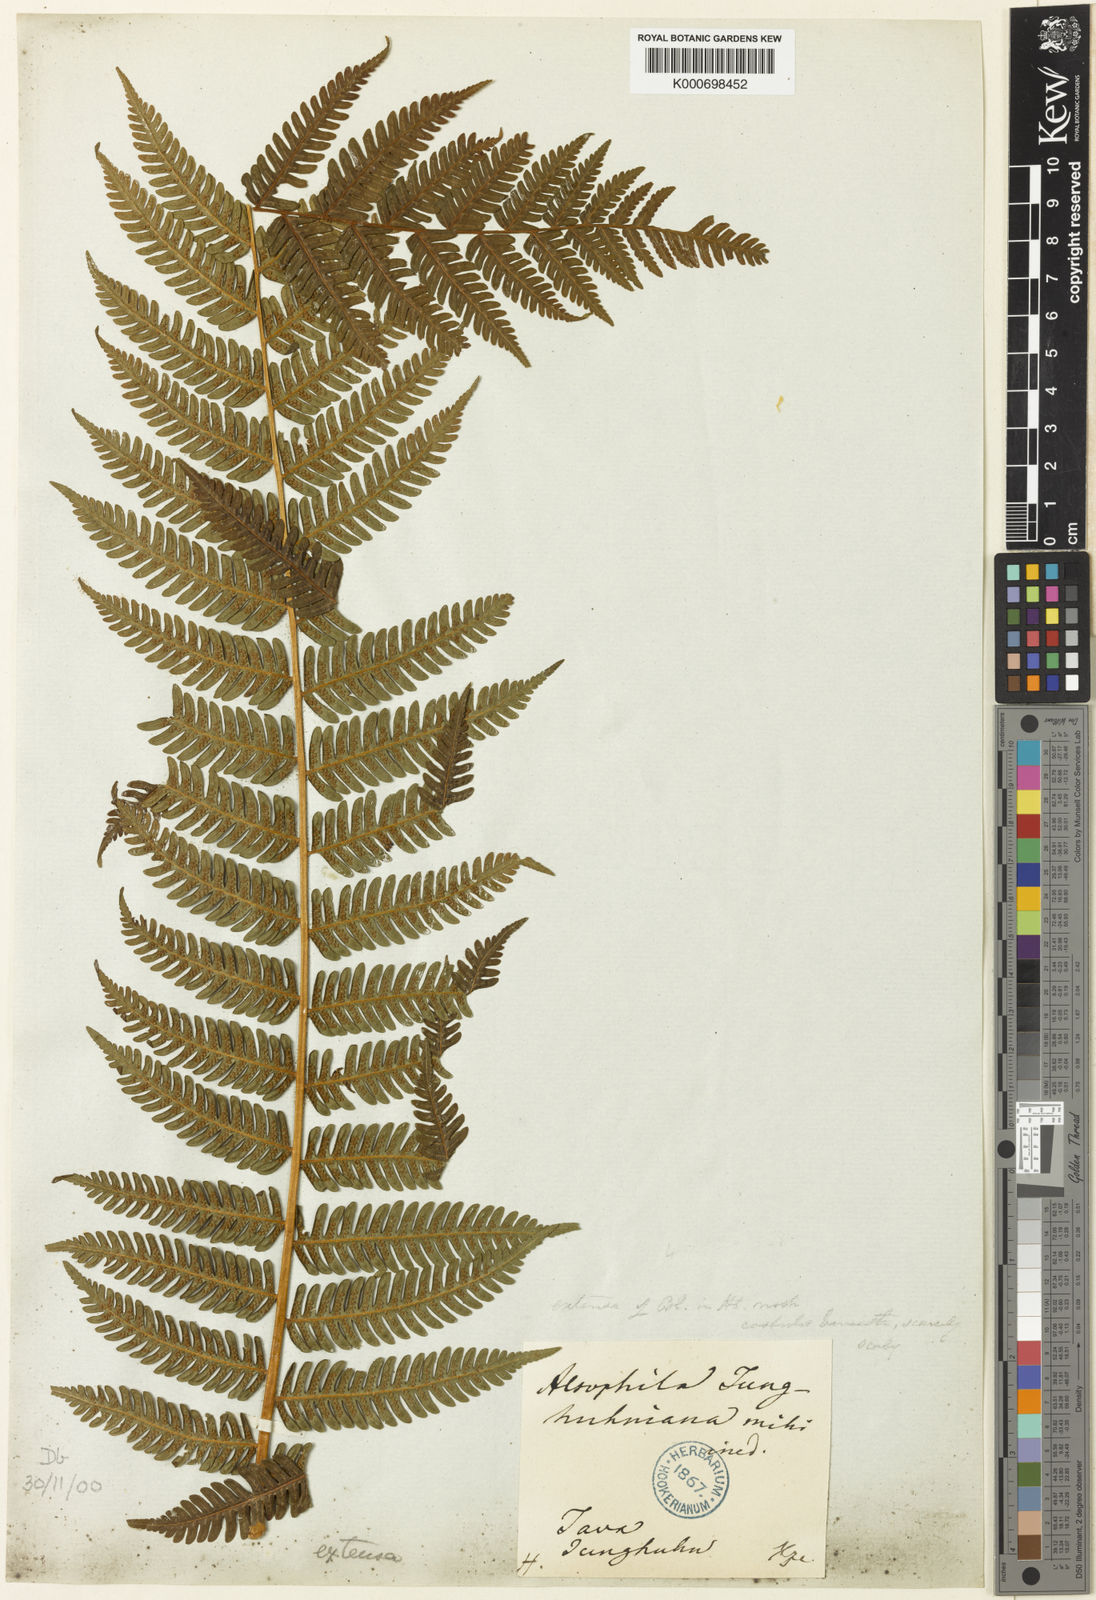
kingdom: Plantae
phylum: Tracheophyta
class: Polypodiopsida
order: Cyatheales
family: Cyatheaceae
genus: Alsophila
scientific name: Alsophila junghuhniana
